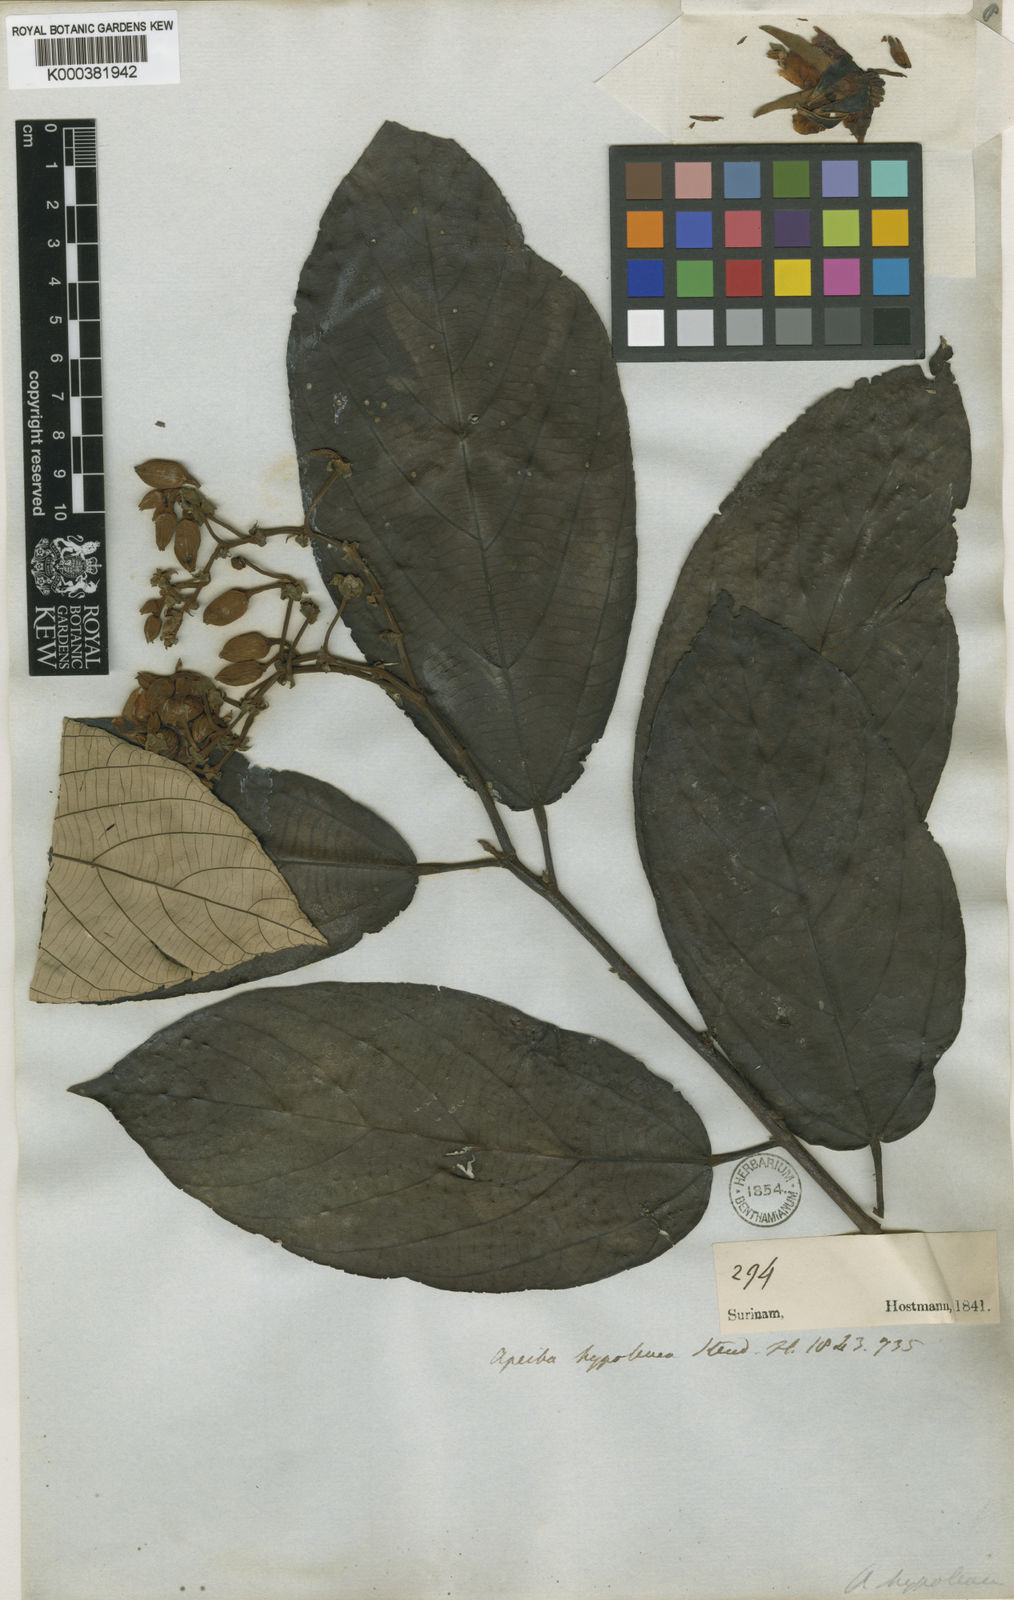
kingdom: Plantae
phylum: Tracheophyta
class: Magnoliopsida
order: Malvales
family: Malvaceae
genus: Apeiba
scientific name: Apeiba petoumo
